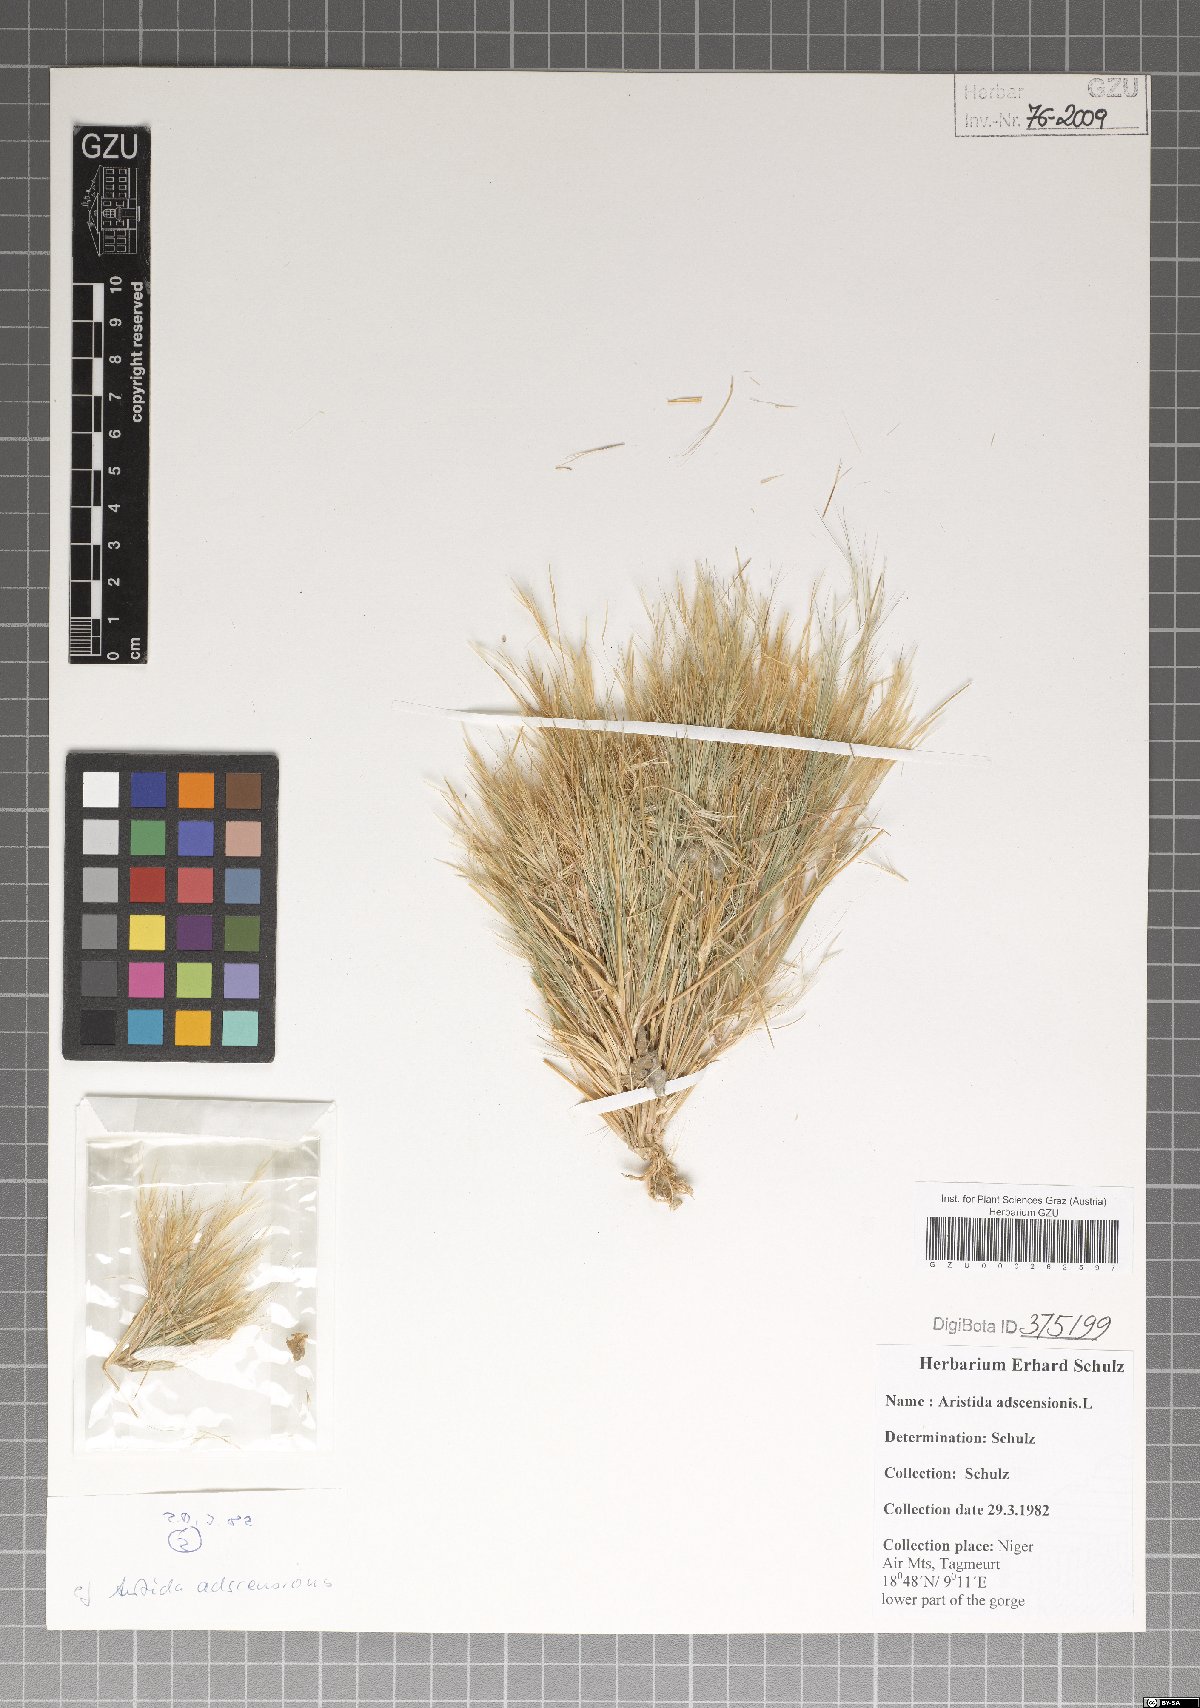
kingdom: Plantae
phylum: Tracheophyta
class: Liliopsida
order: Poales
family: Poaceae
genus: Aristida
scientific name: Aristida adscensionis
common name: Sixweeks threeawn
